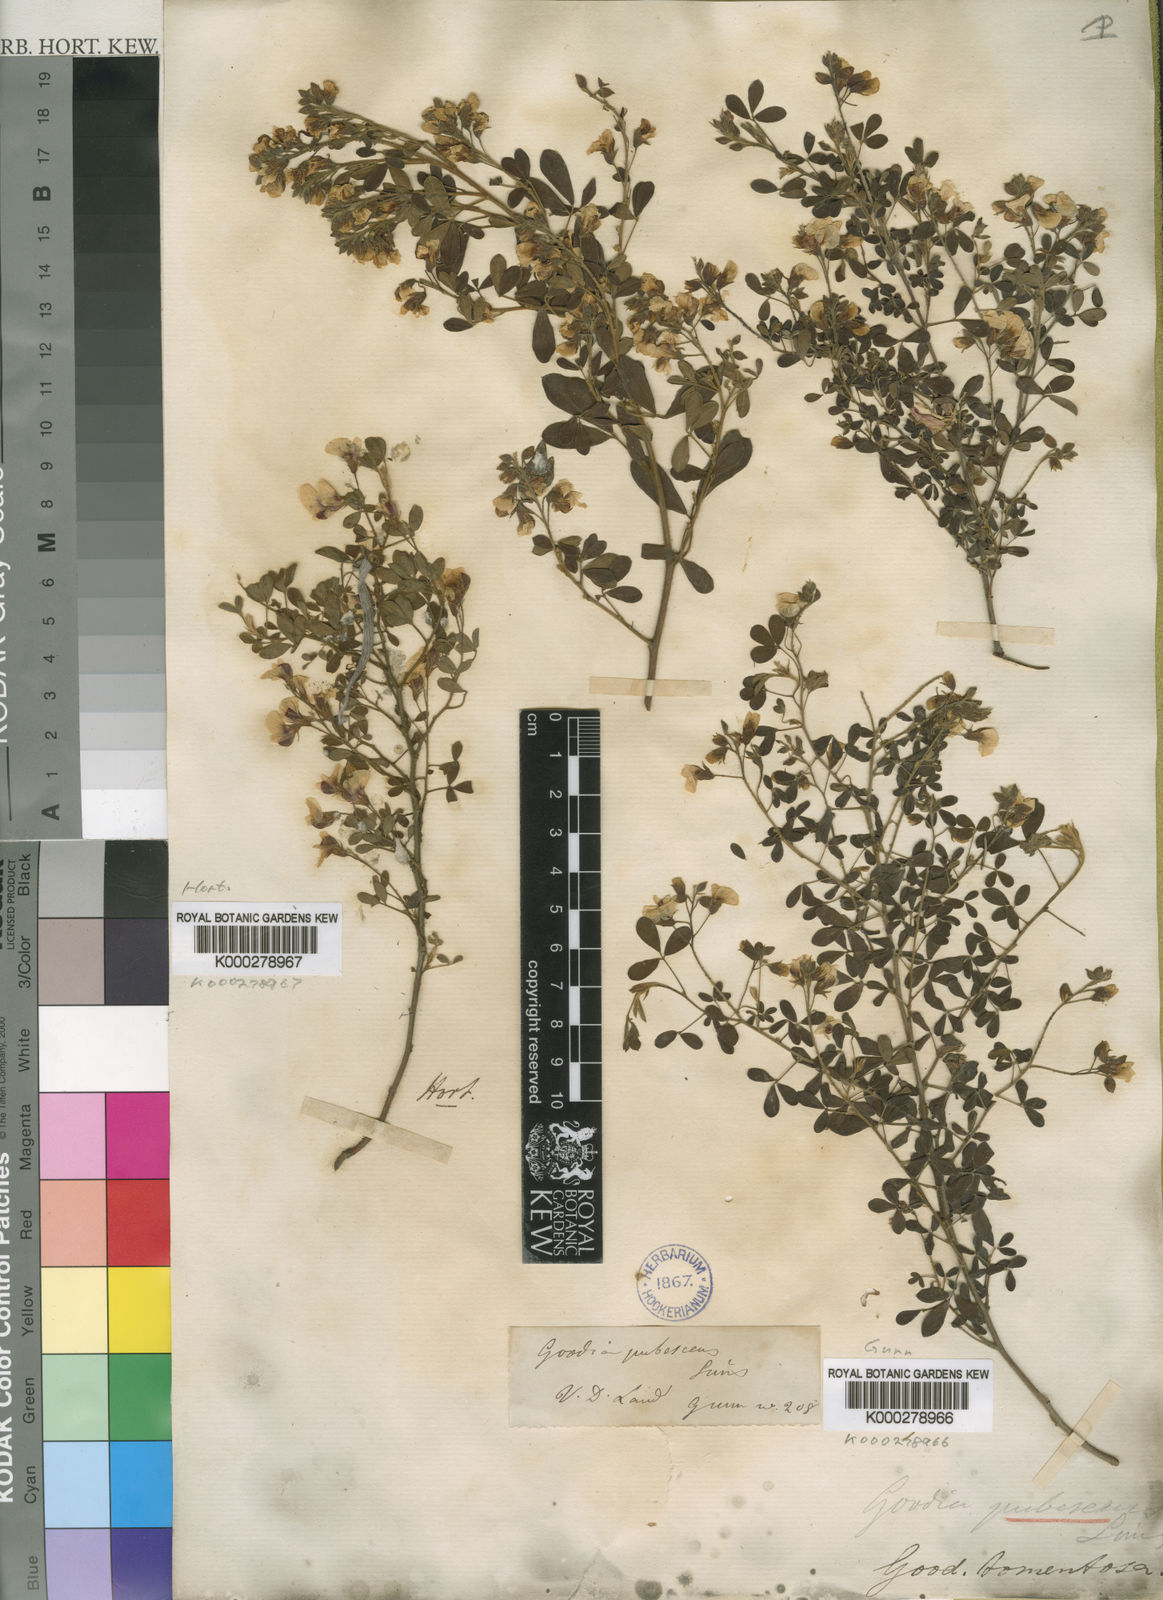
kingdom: Plantae
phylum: Tracheophyta
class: Magnoliopsida
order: Fabales
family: Fabaceae
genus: Goodia
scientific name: Goodia pubescens
